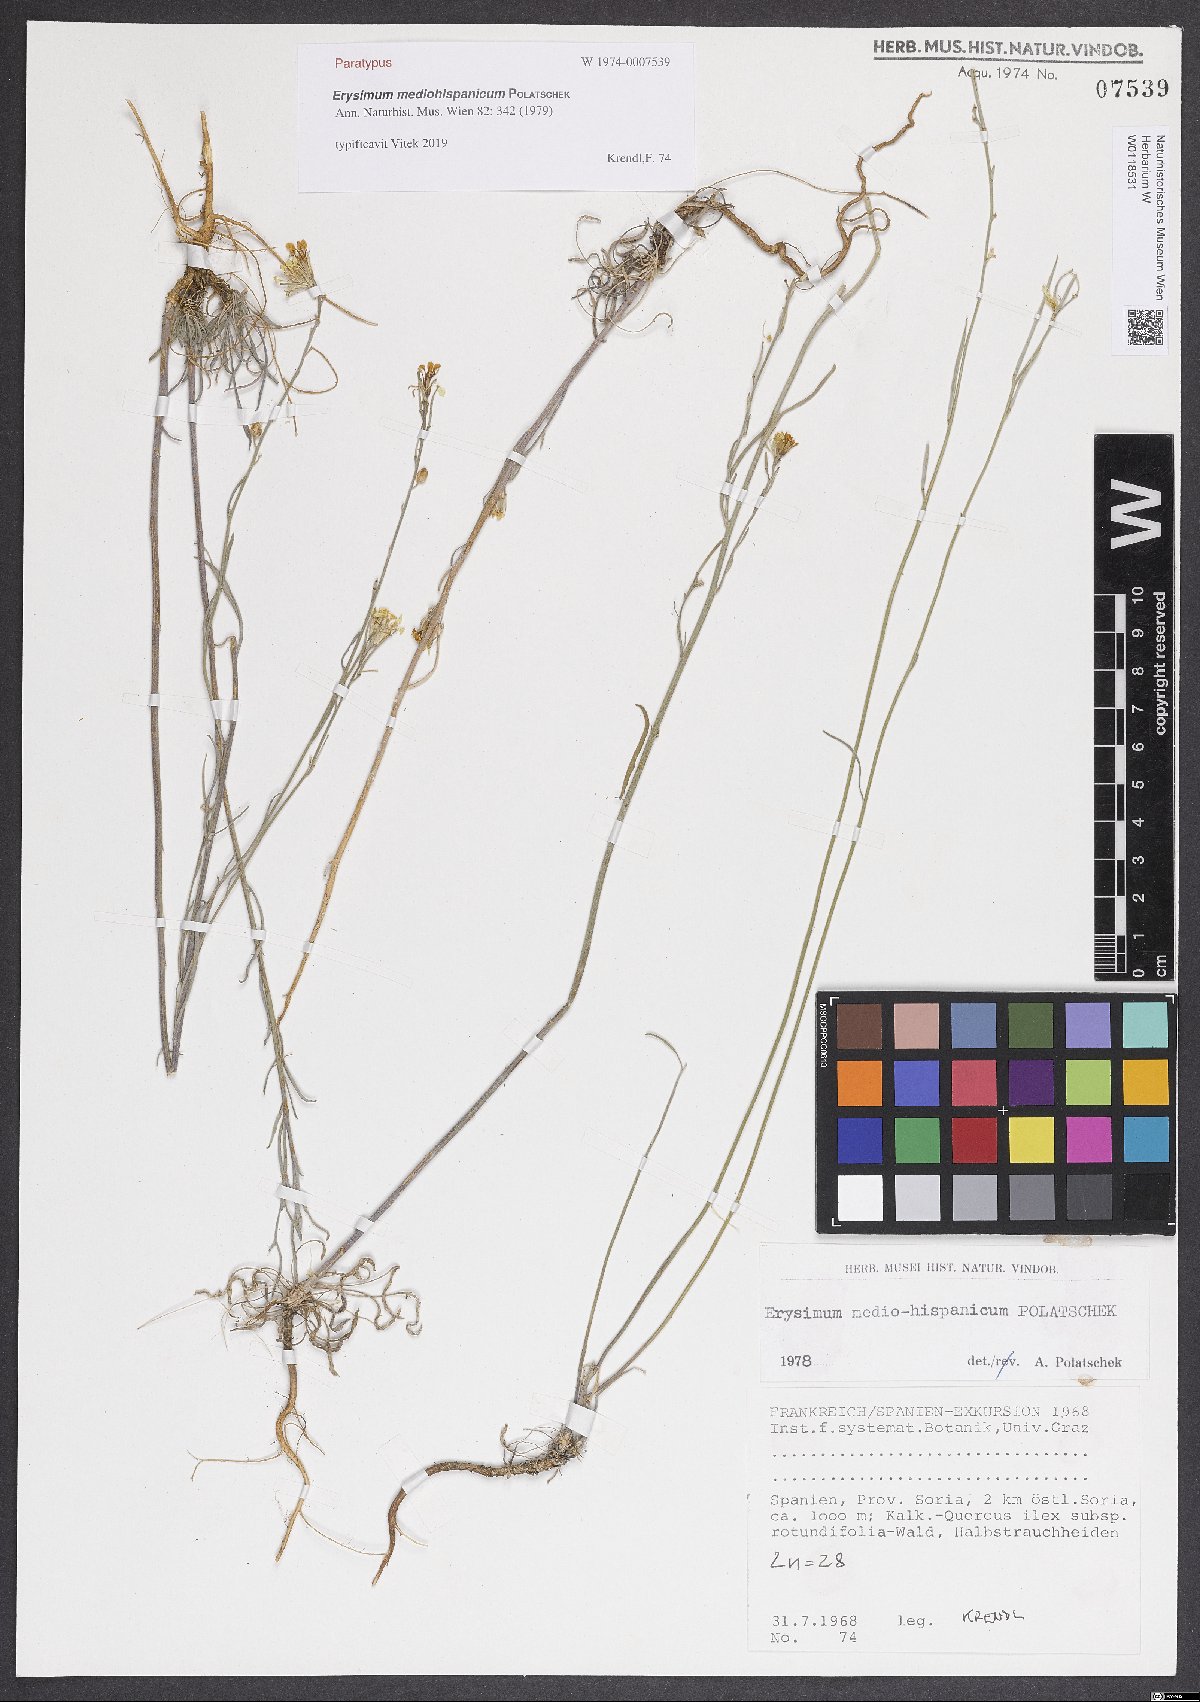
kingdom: Plantae
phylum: Tracheophyta
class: Magnoliopsida
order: Brassicales
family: Brassicaceae
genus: Erysimum
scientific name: Erysimum nevadense
